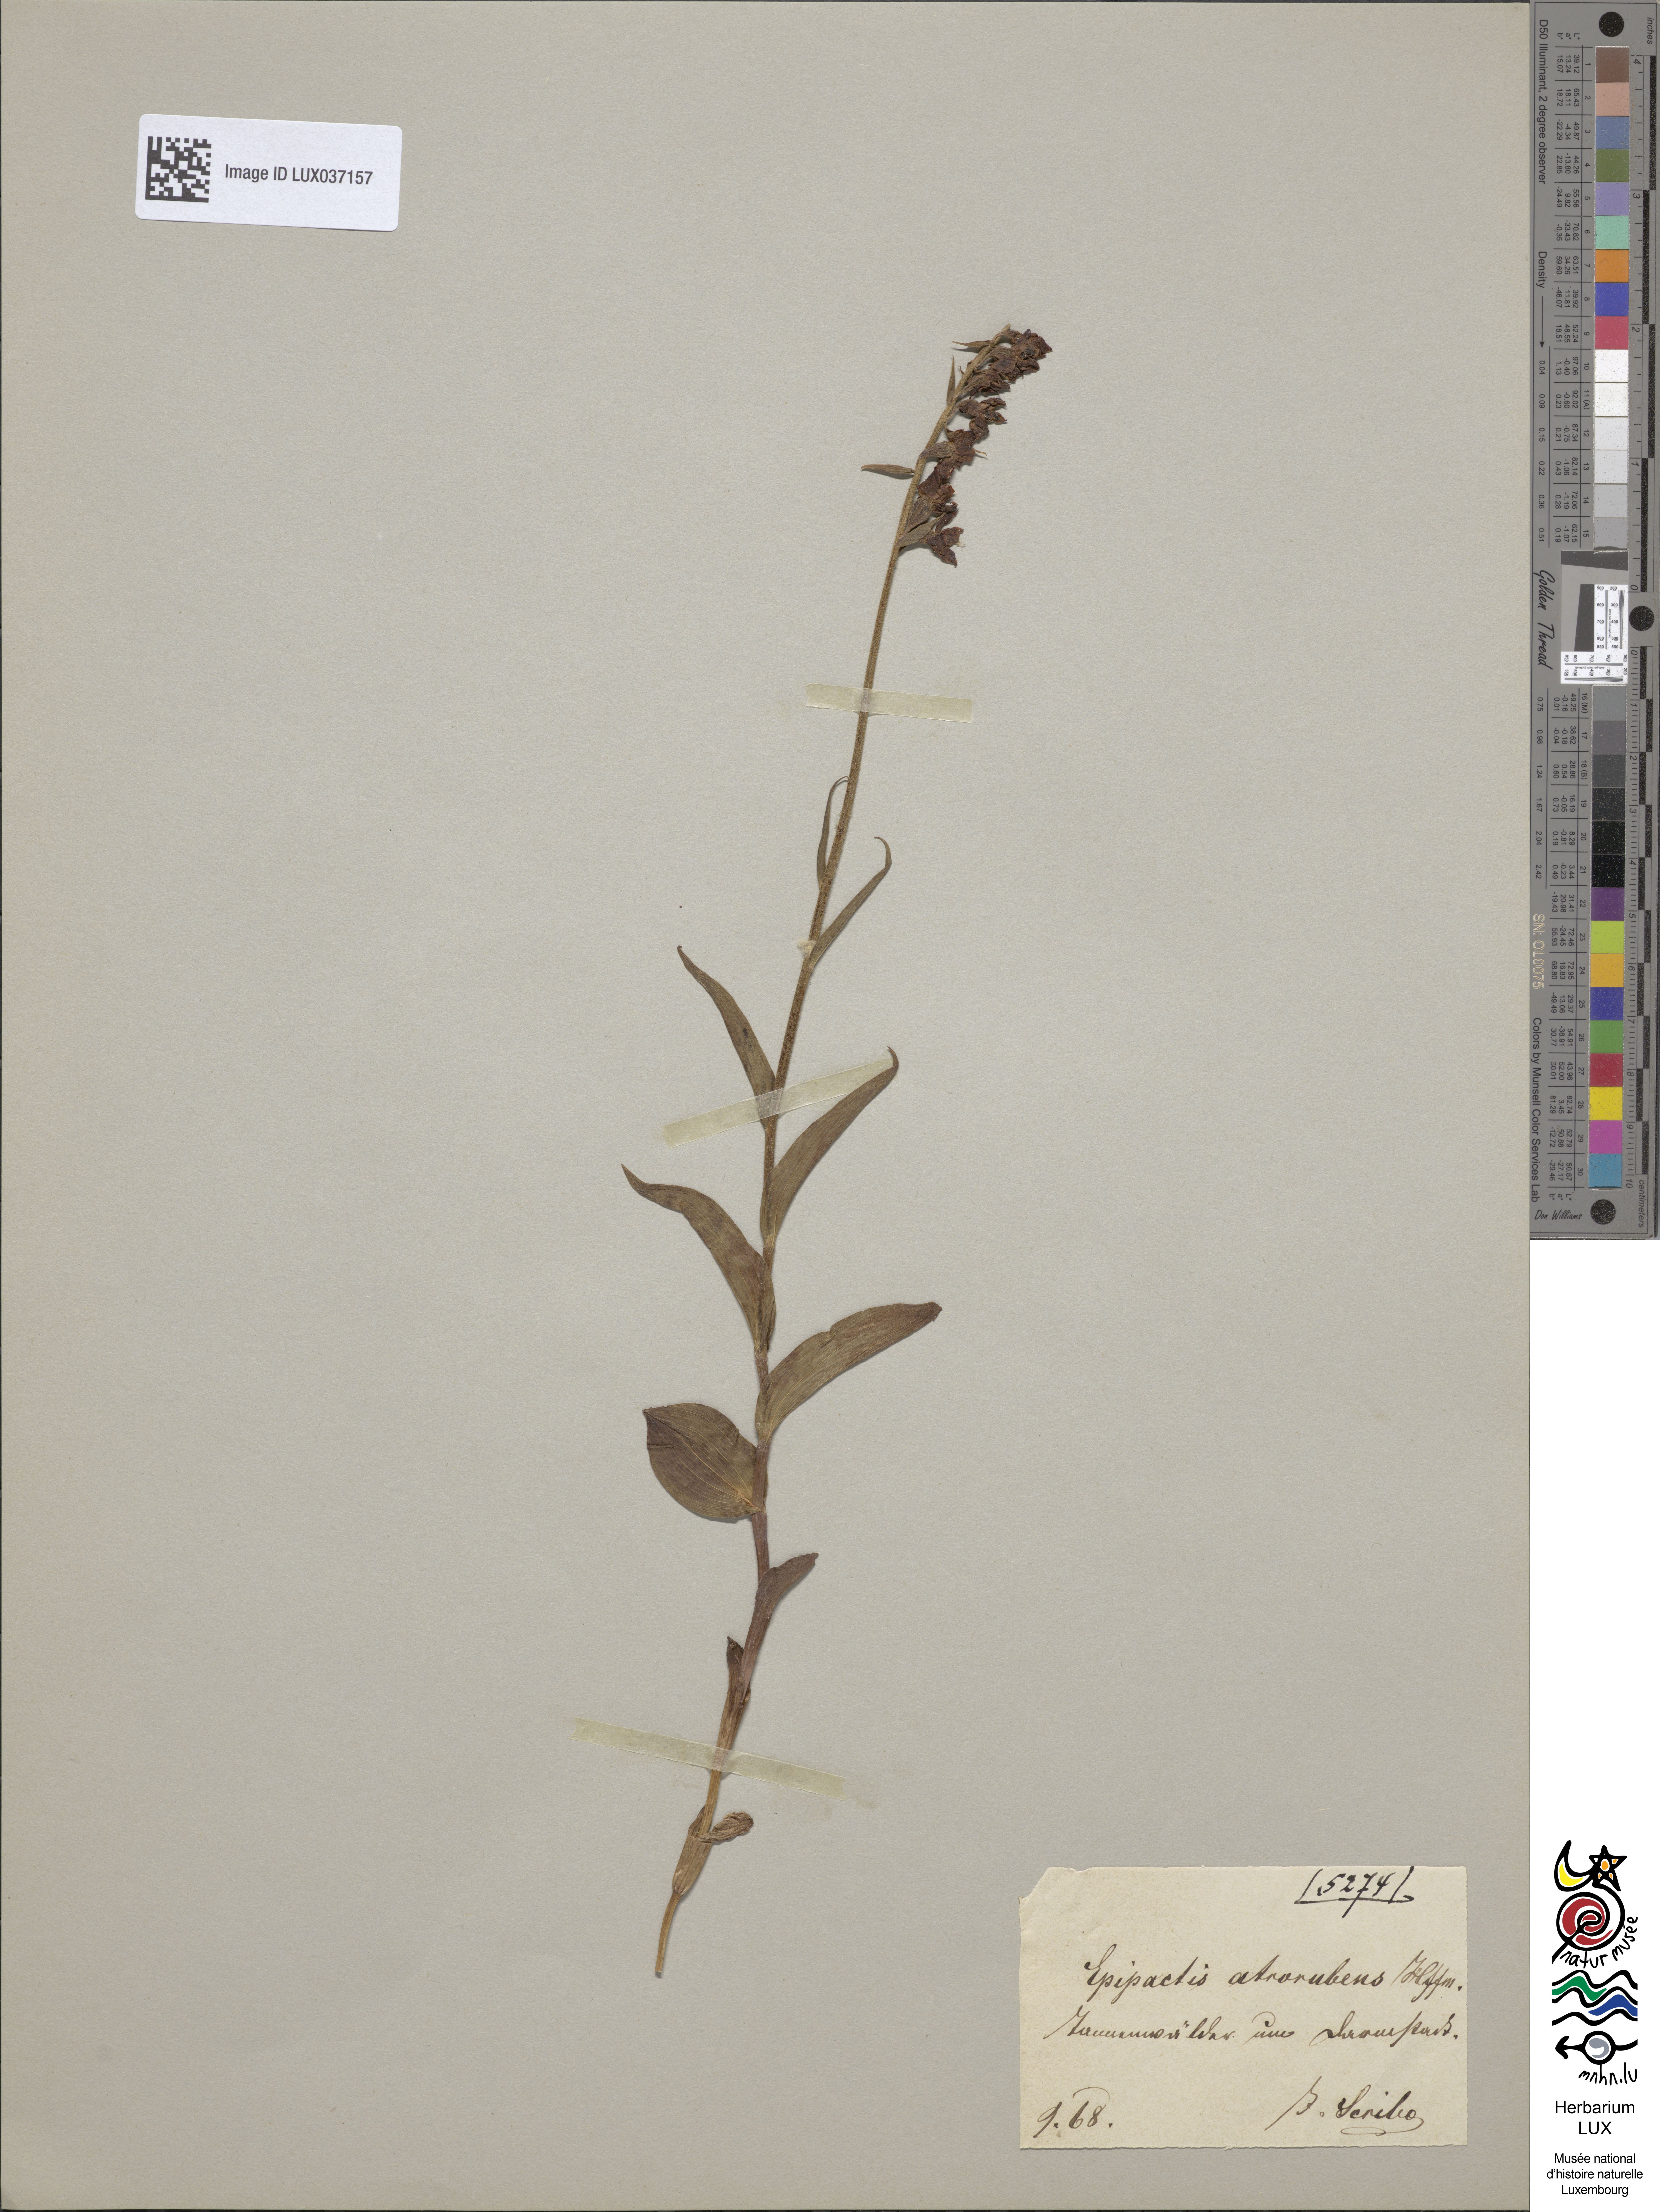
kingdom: Plantae
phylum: Tracheophyta
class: Liliopsida
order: Asparagales
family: Orchidaceae
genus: Epipactis
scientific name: Epipactis atrorubens
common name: Dark-red helleborine
